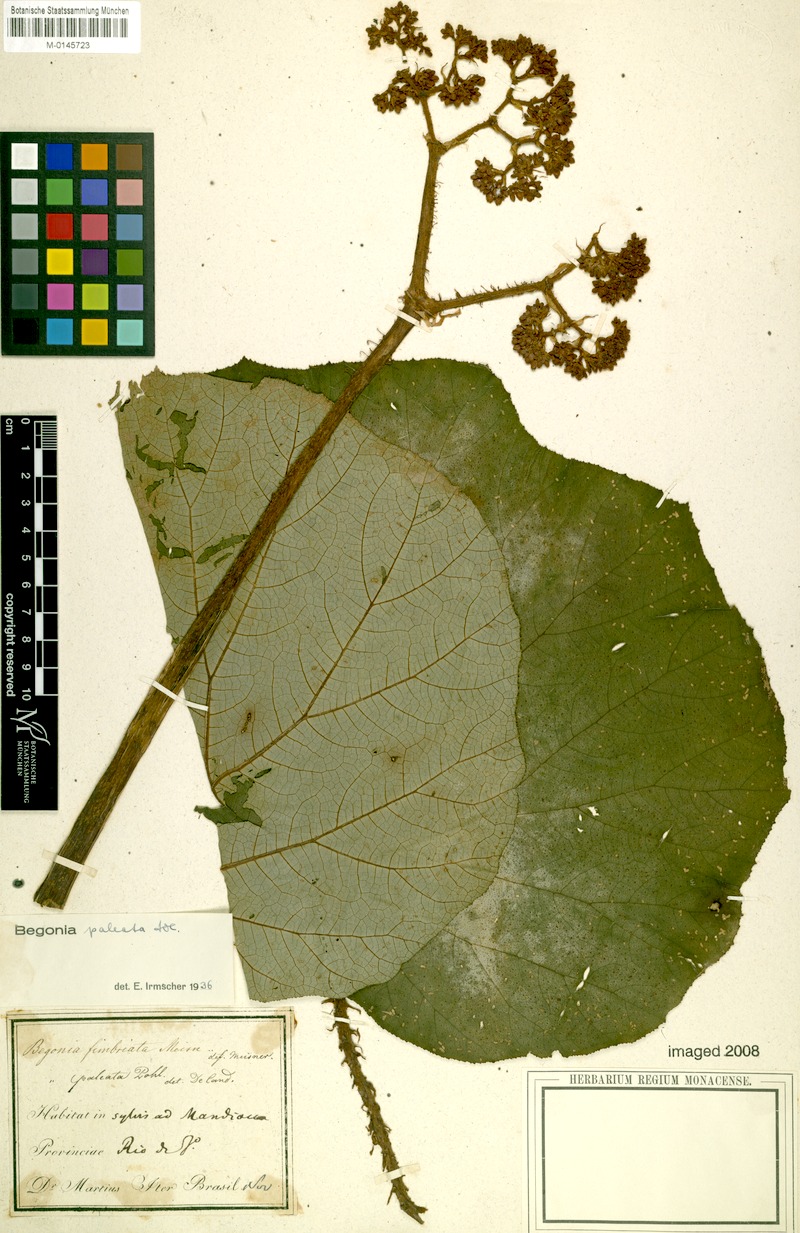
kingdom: Plantae
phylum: Tracheophyta
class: Magnoliopsida
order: Cucurbitales
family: Begoniaceae
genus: Begonia
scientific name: Begonia paleata
